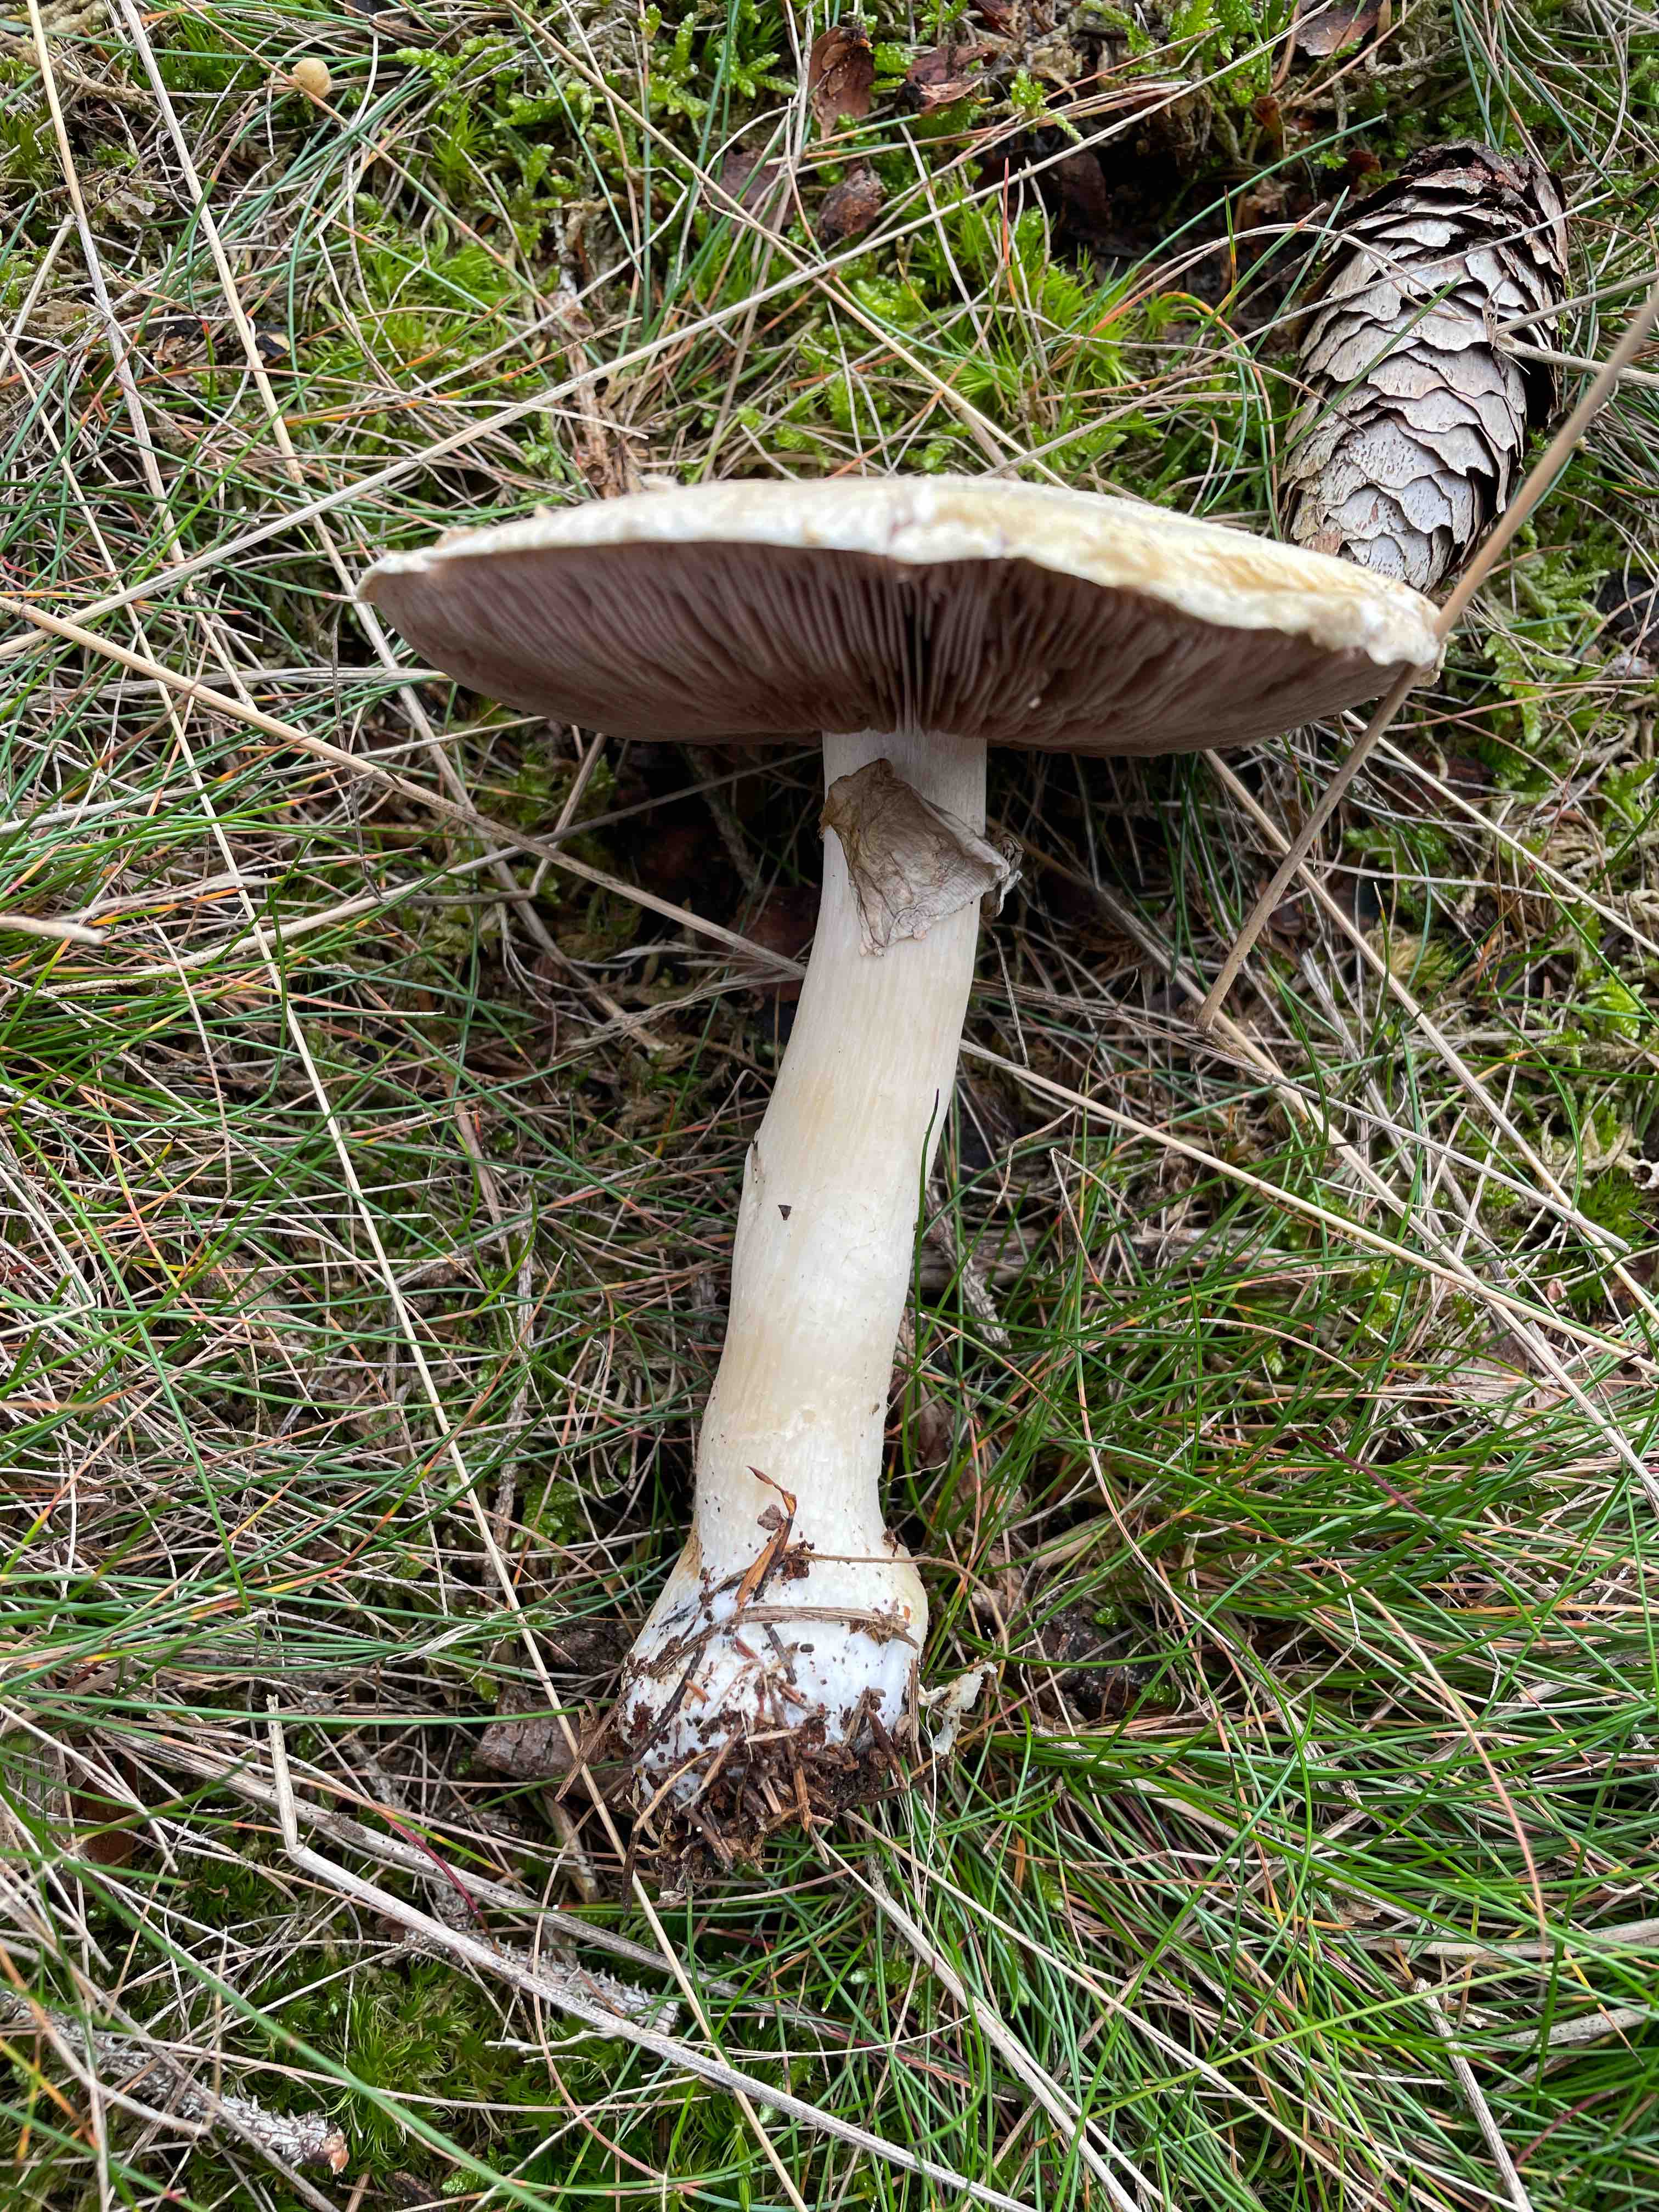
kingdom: Fungi
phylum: Basidiomycota
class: Agaricomycetes
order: Agaricales
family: Agaricaceae
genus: Agaricus
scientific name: Agaricus
